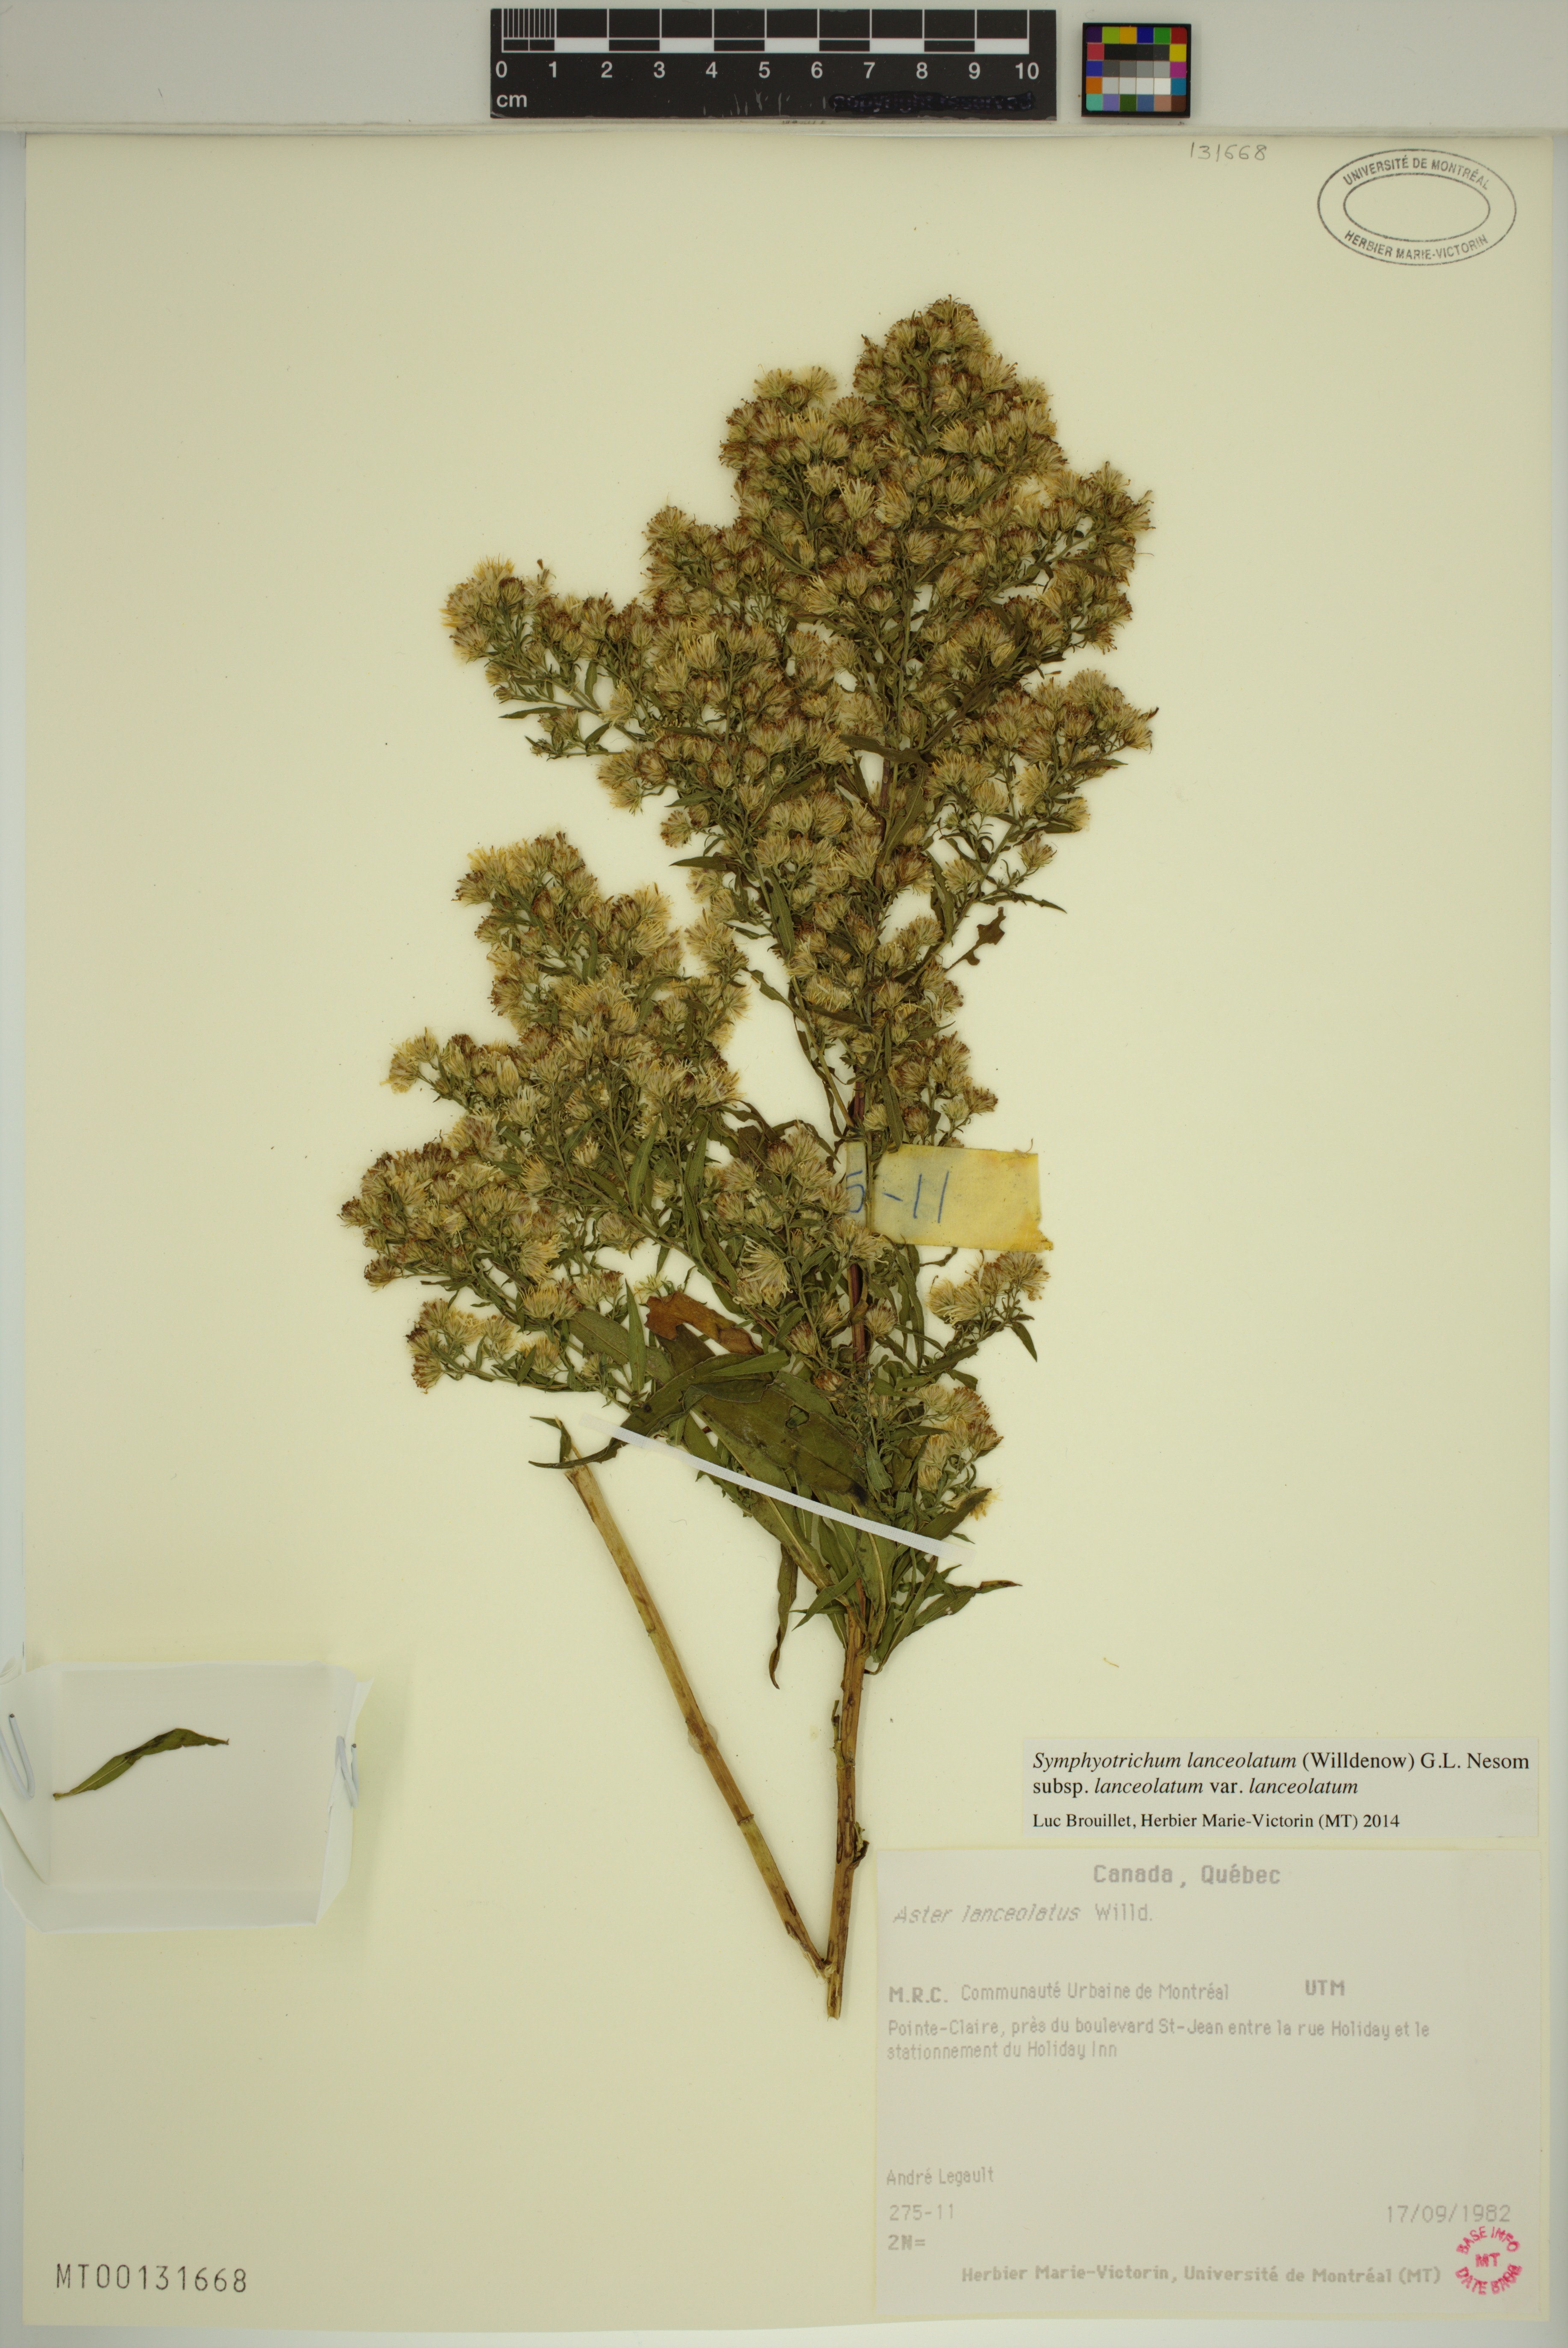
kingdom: Plantae
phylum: Tracheophyta
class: Magnoliopsida
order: Asterales
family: Asteraceae
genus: Symphyotrichum
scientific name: Symphyotrichum lanceolatum
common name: Panicled aster
